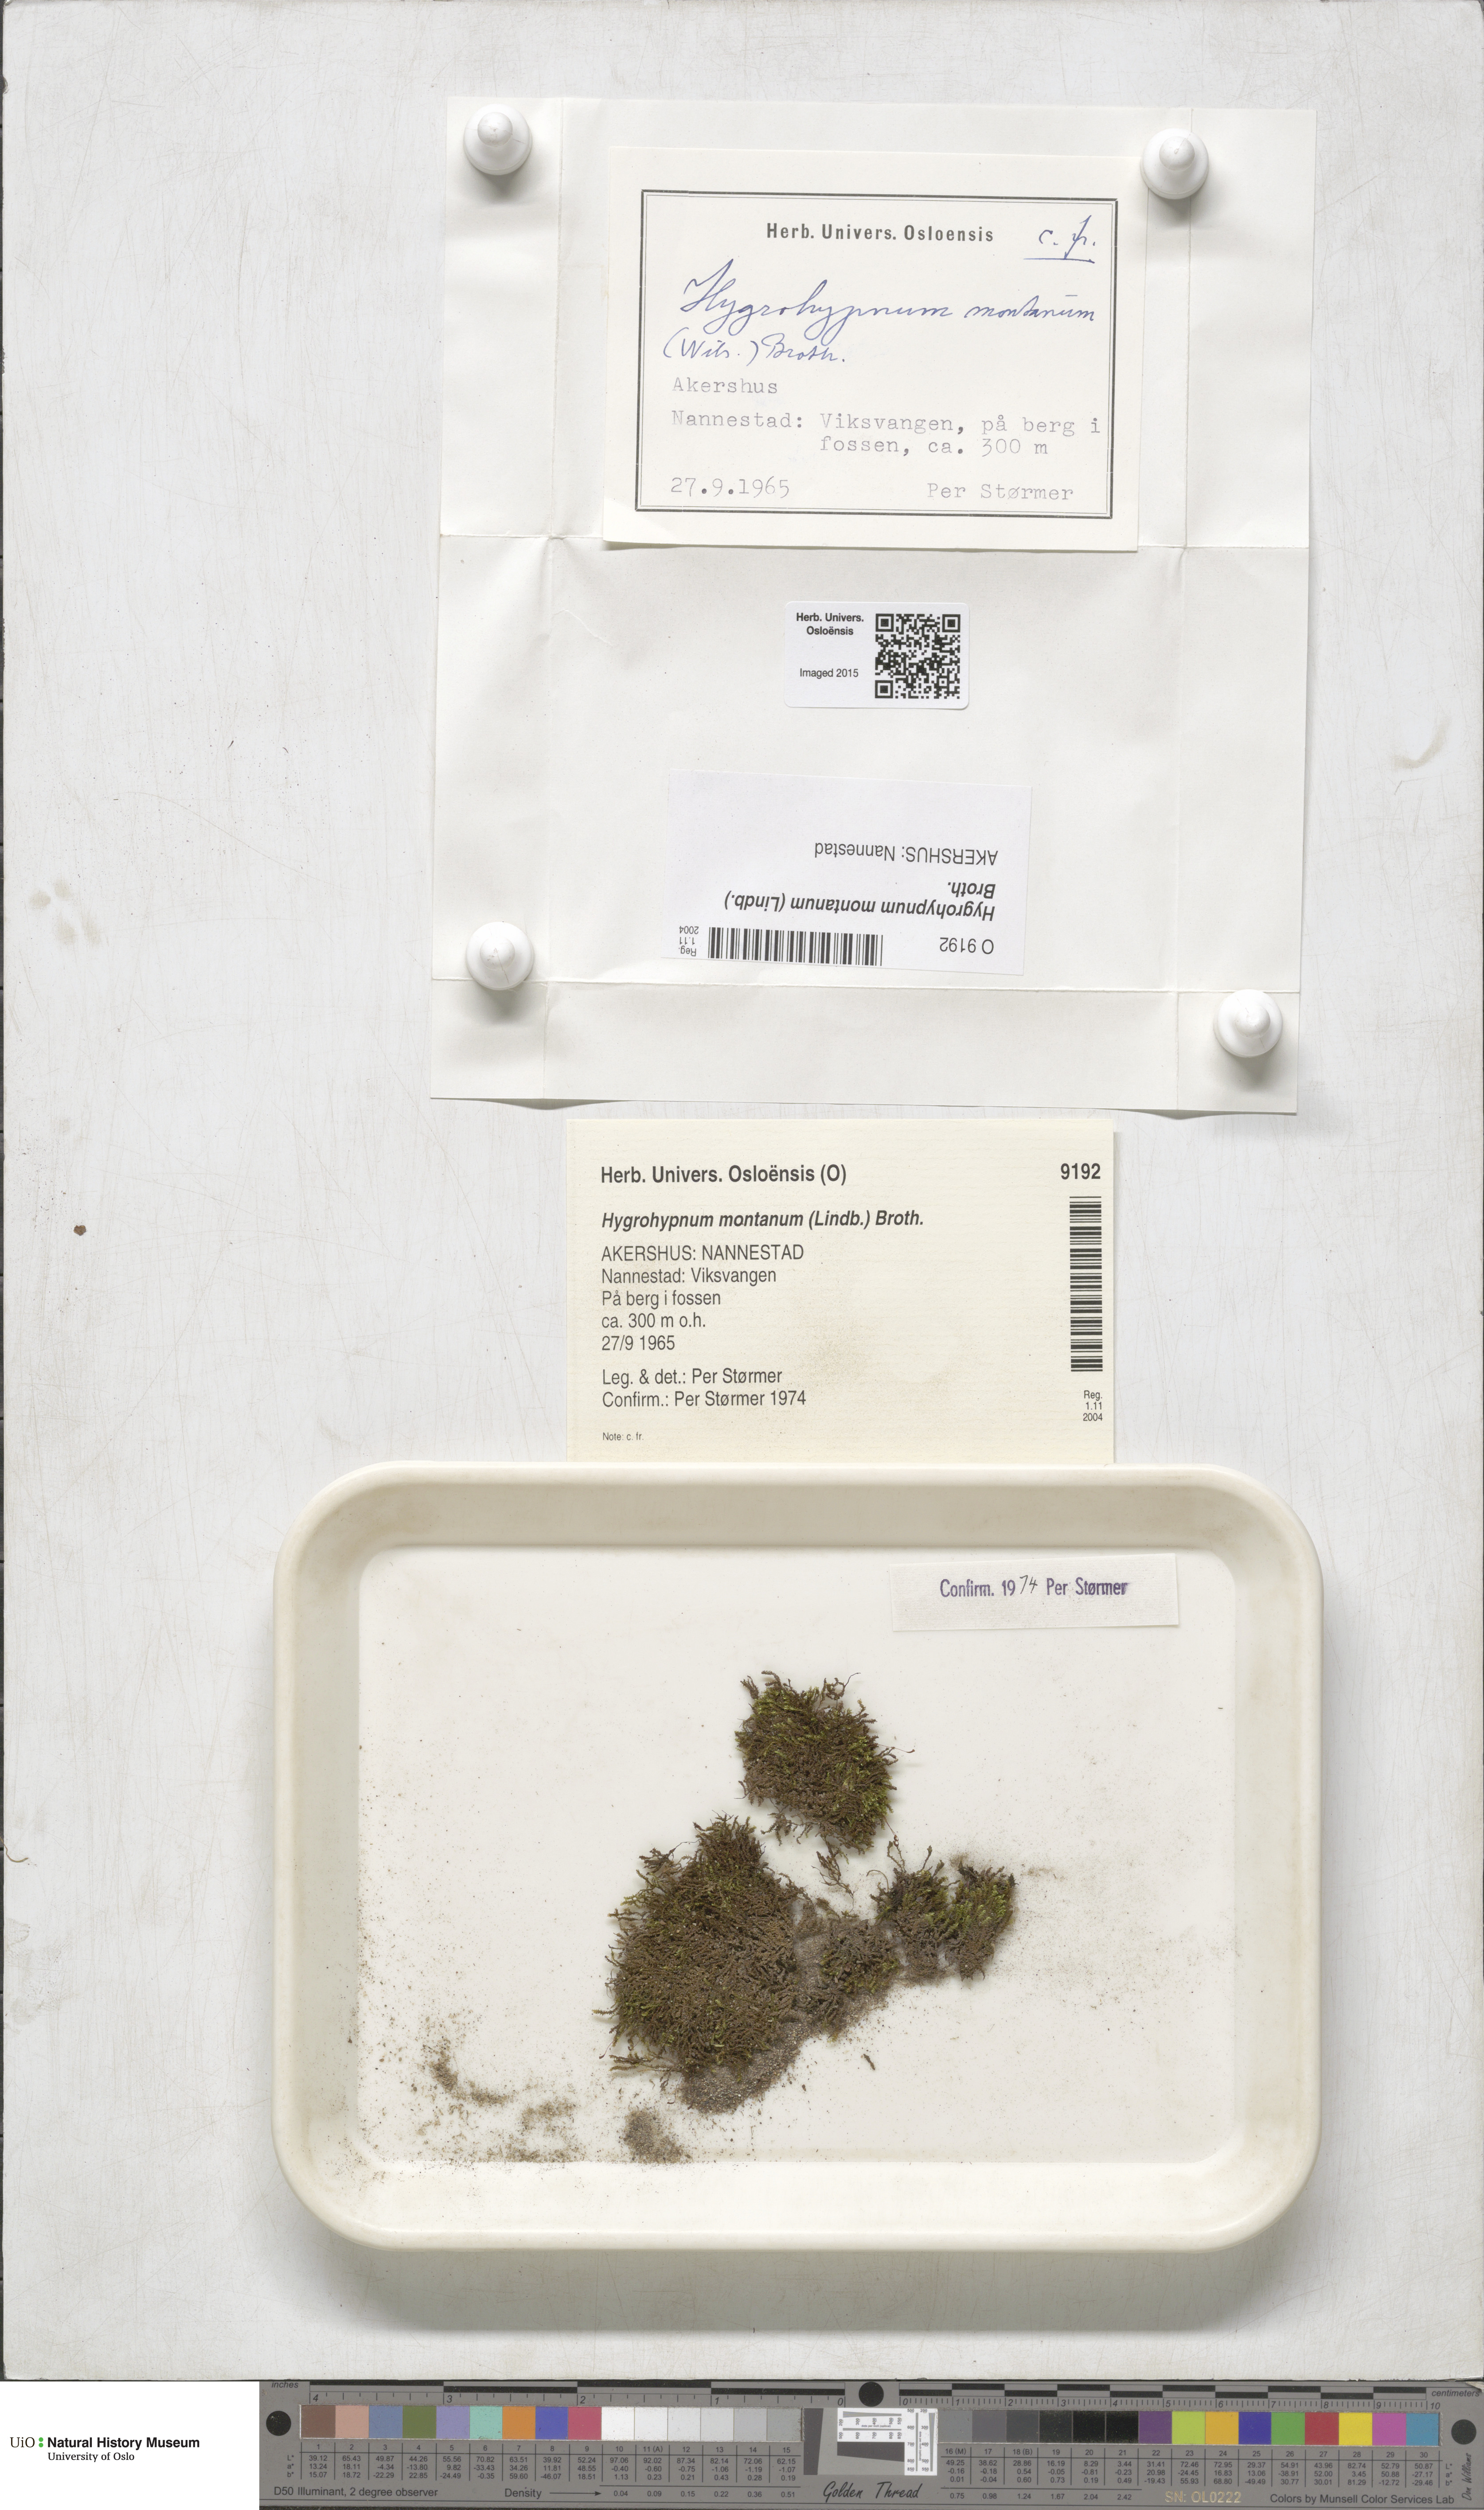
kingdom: Plantae
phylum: Bryophyta
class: Bryopsida
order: Hypnales
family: Amblystegiaceae
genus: Campylophyllum
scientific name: Campylophyllum montanum
